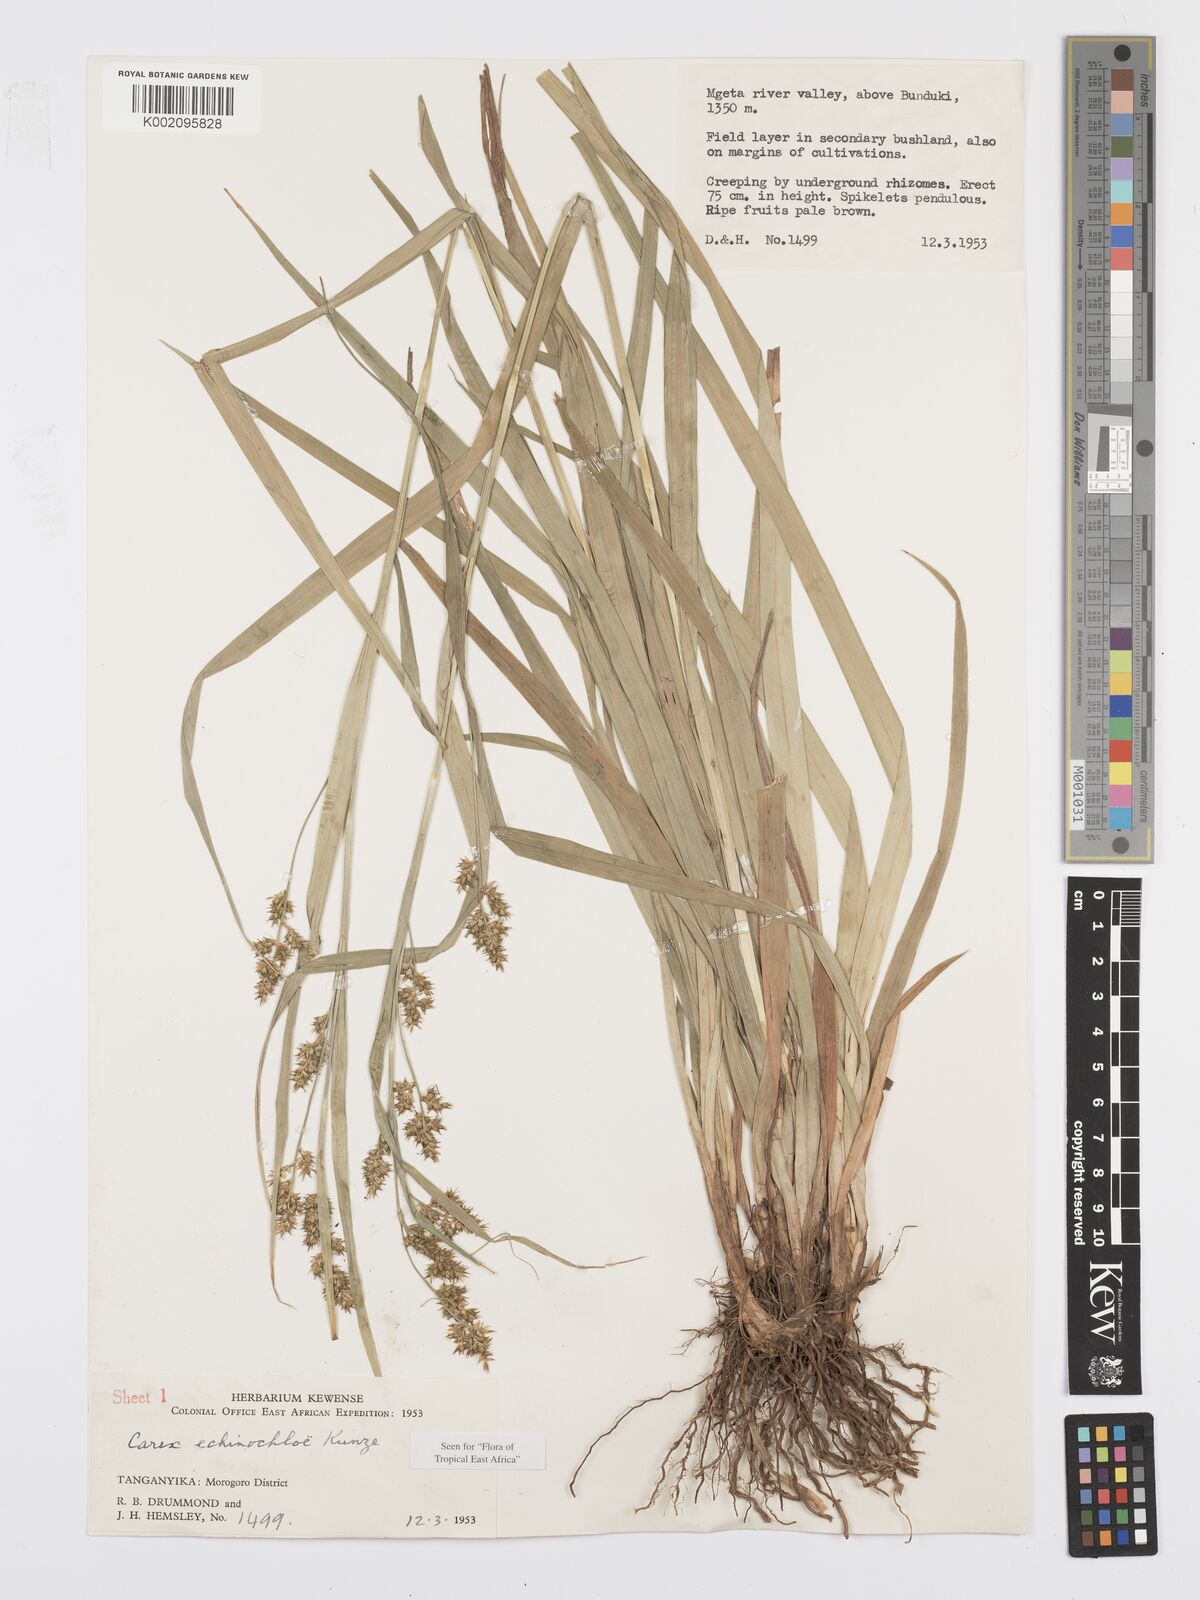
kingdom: Plantae
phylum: Tracheophyta
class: Liliopsida
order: Poales
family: Cyperaceae
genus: Carex
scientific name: Carex echinochloe
